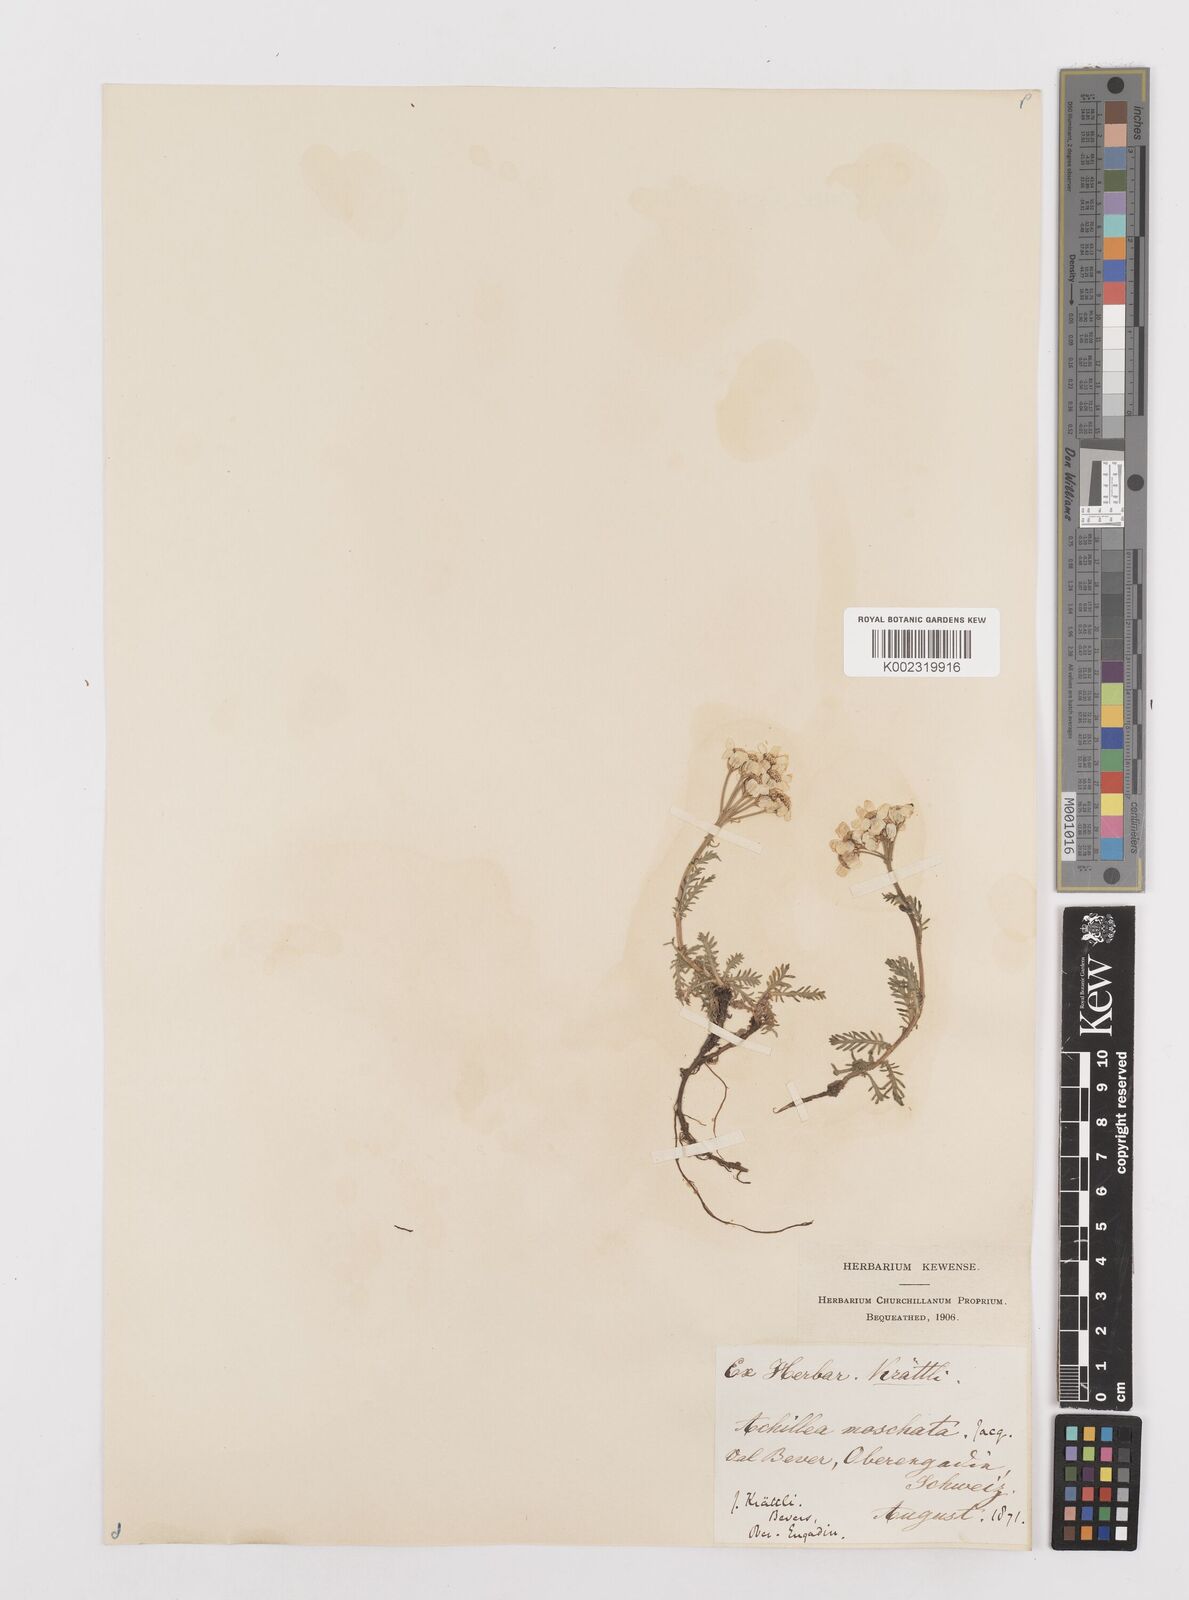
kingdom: Plantae
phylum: Tracheophyta
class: Magnoliopsida
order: Asterales
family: Asteraceae
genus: Achillea
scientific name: Achillea erba-rotta
